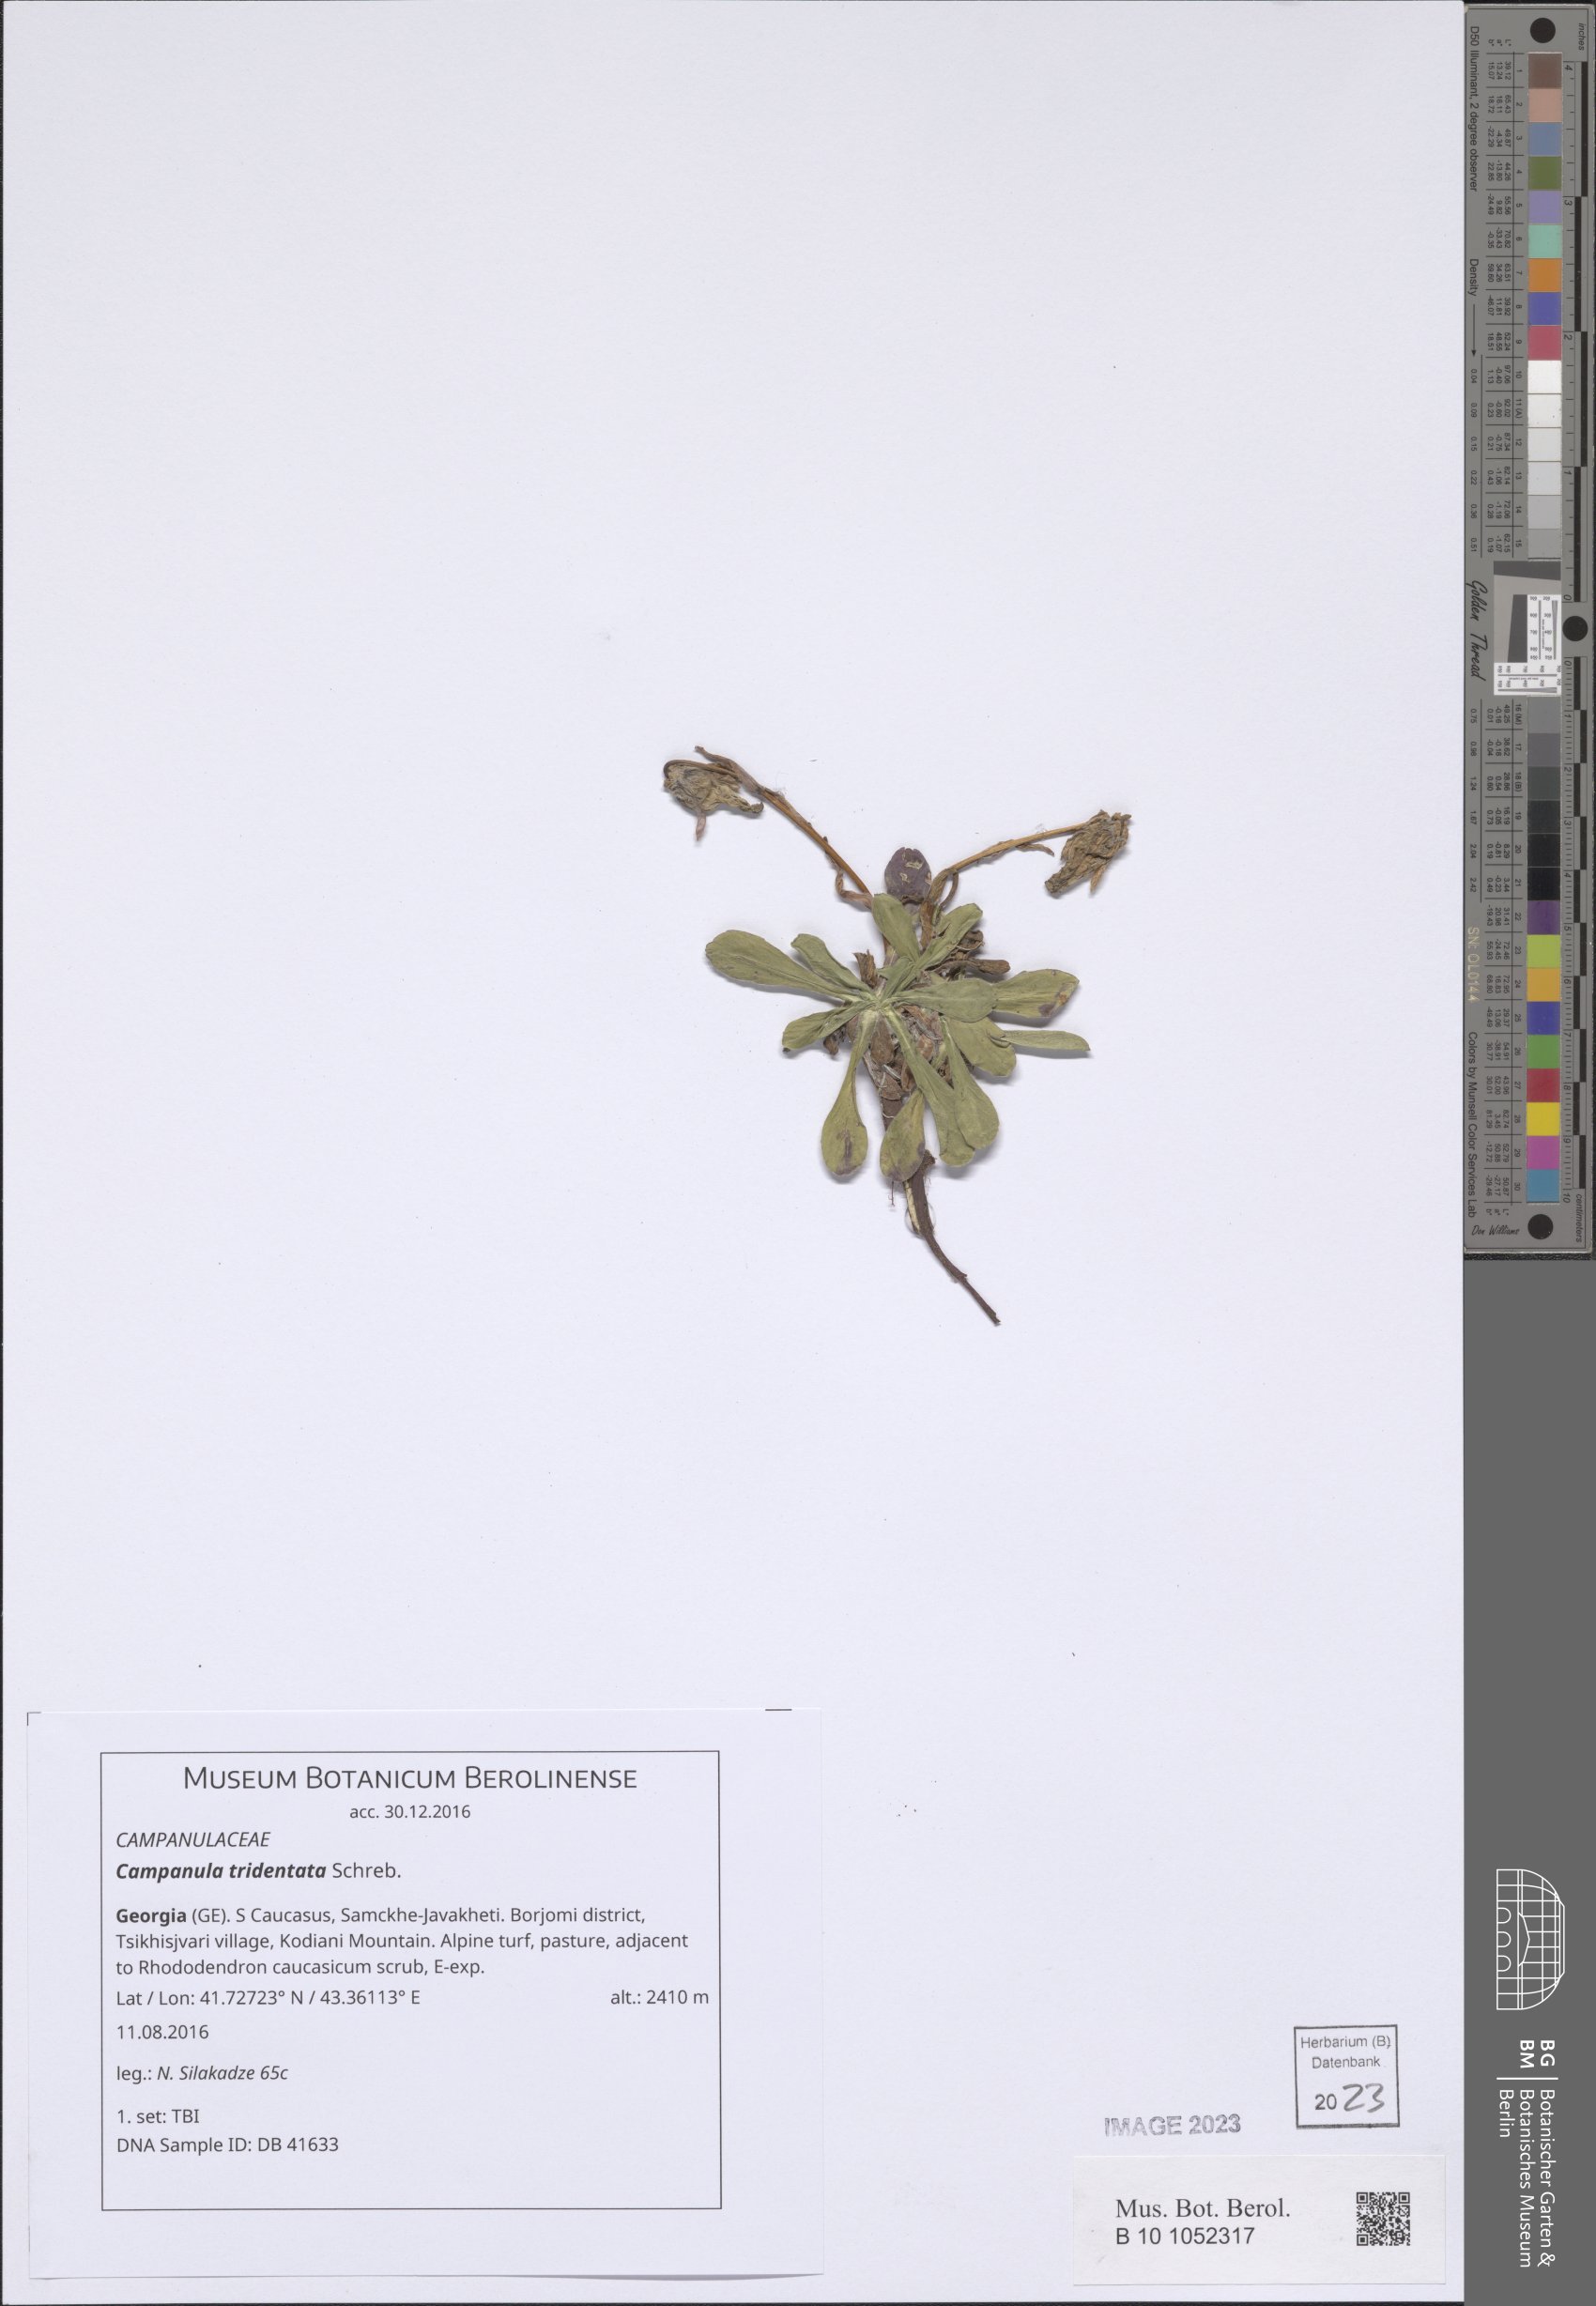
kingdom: Plantae
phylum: Tracheophyta
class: Magnoliopsida
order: Asterales
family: Campanulaceae
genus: Campanula
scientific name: Campanula tridentata
